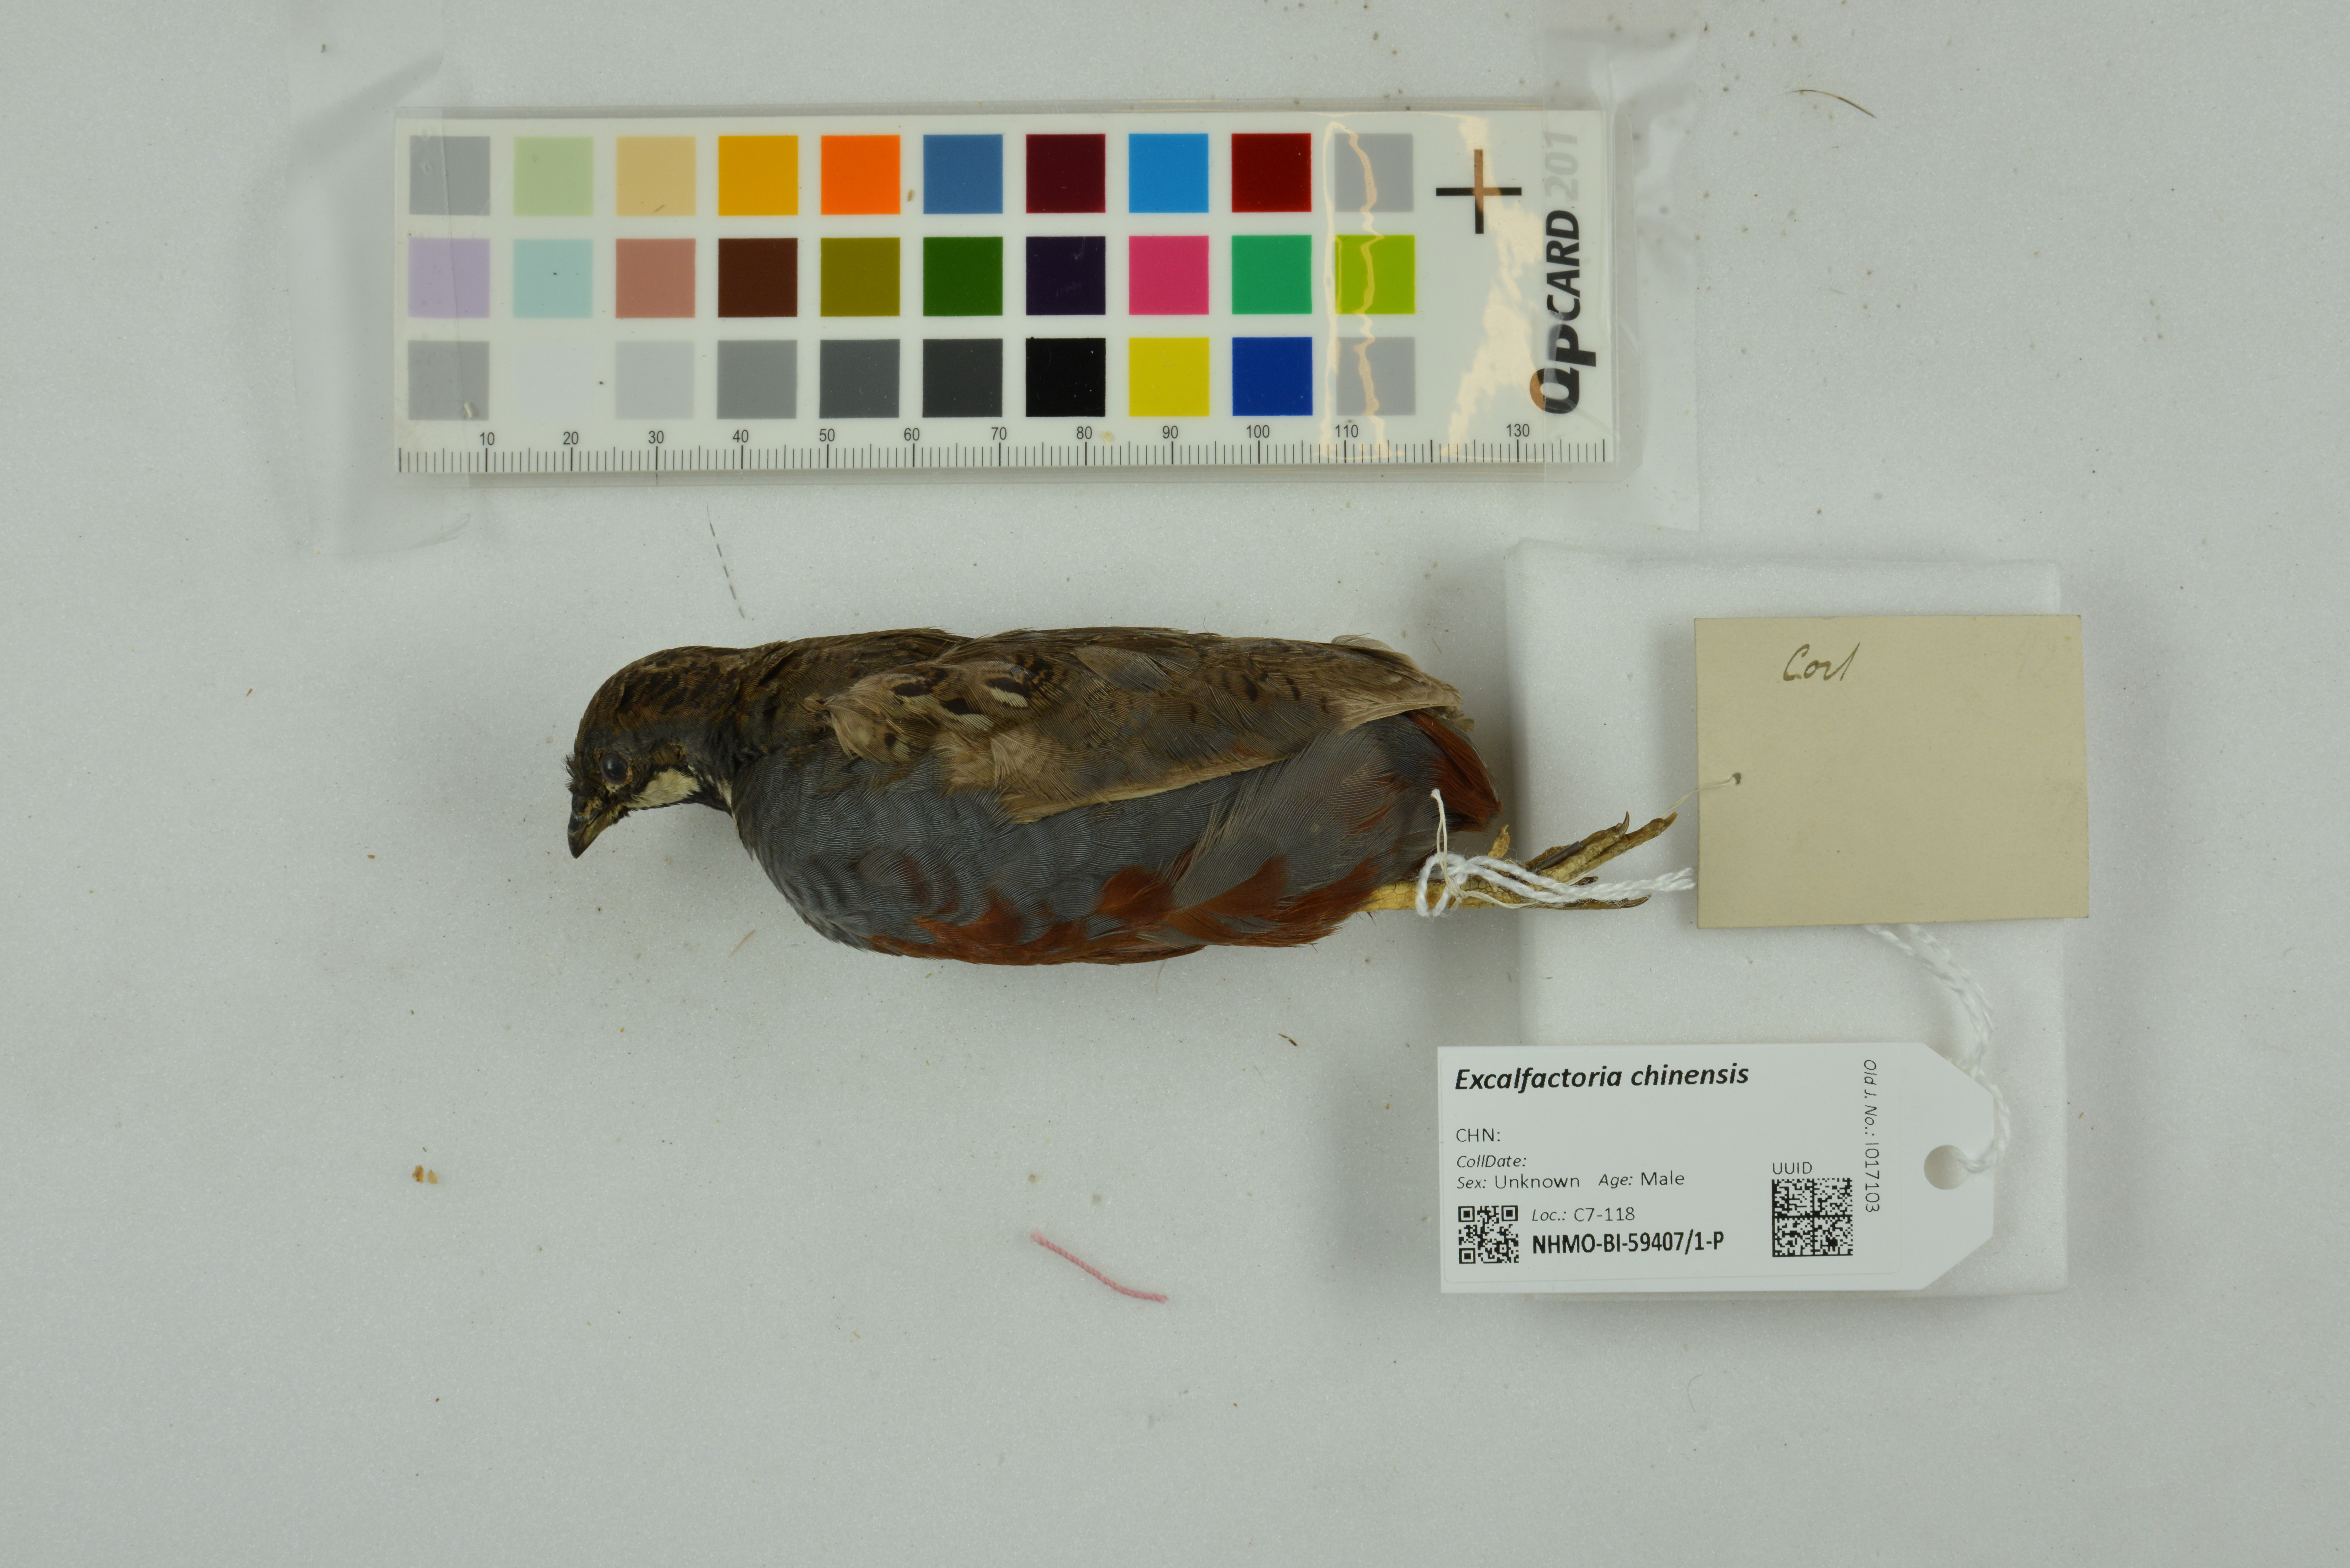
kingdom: Animalia
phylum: Chordata
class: Aves
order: Galliformes
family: Phasianidae
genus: Synoicus
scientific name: Synoicus chinensis
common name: Blue-breasted quail
